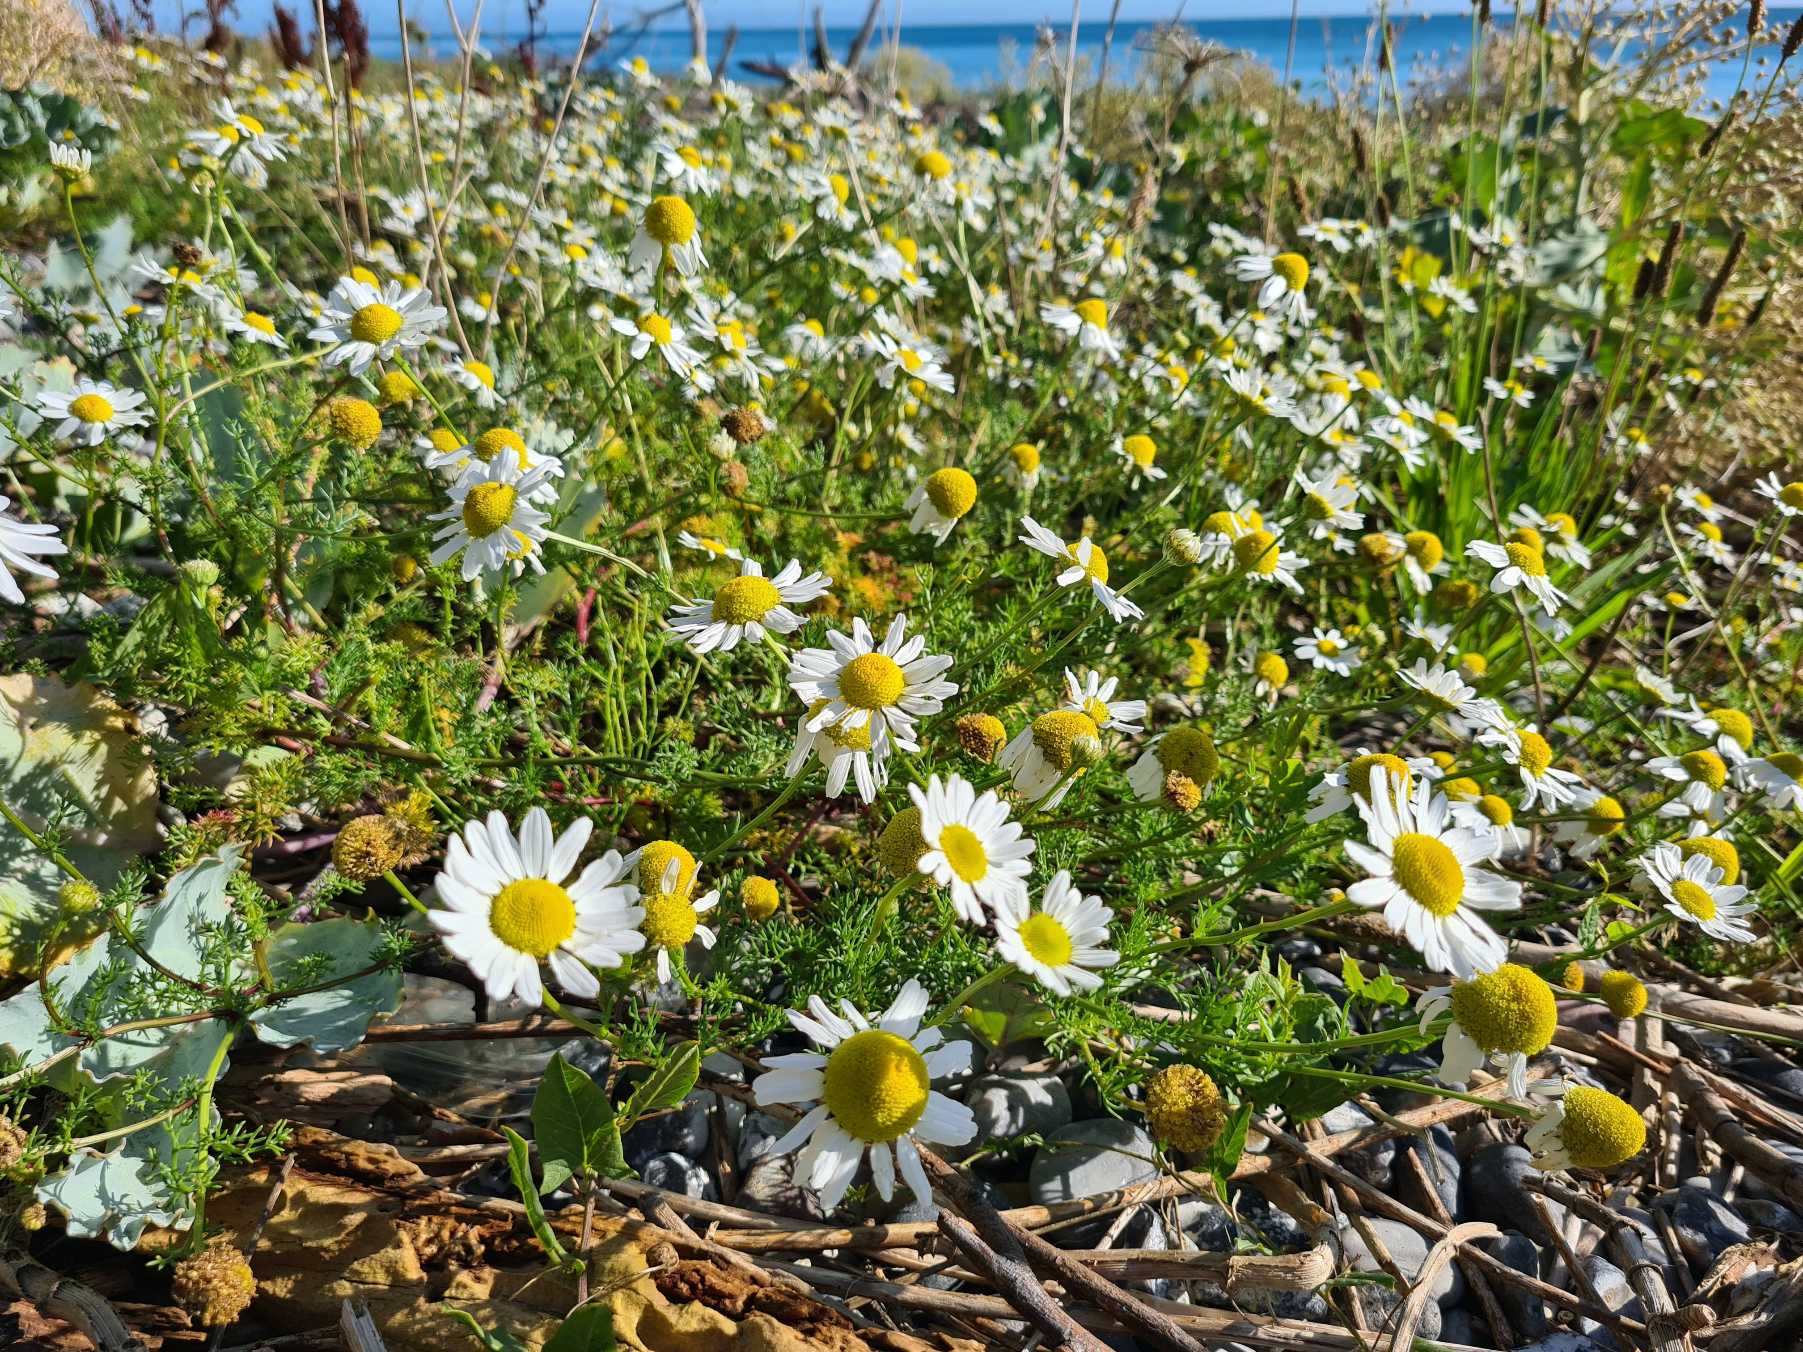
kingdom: Plantae
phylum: Tracheophyta
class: Magnoliopsida
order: Asterales
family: Asteraceae
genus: Tripleurospermum
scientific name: Tripleurospermum maritimum
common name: Strand-kamille
